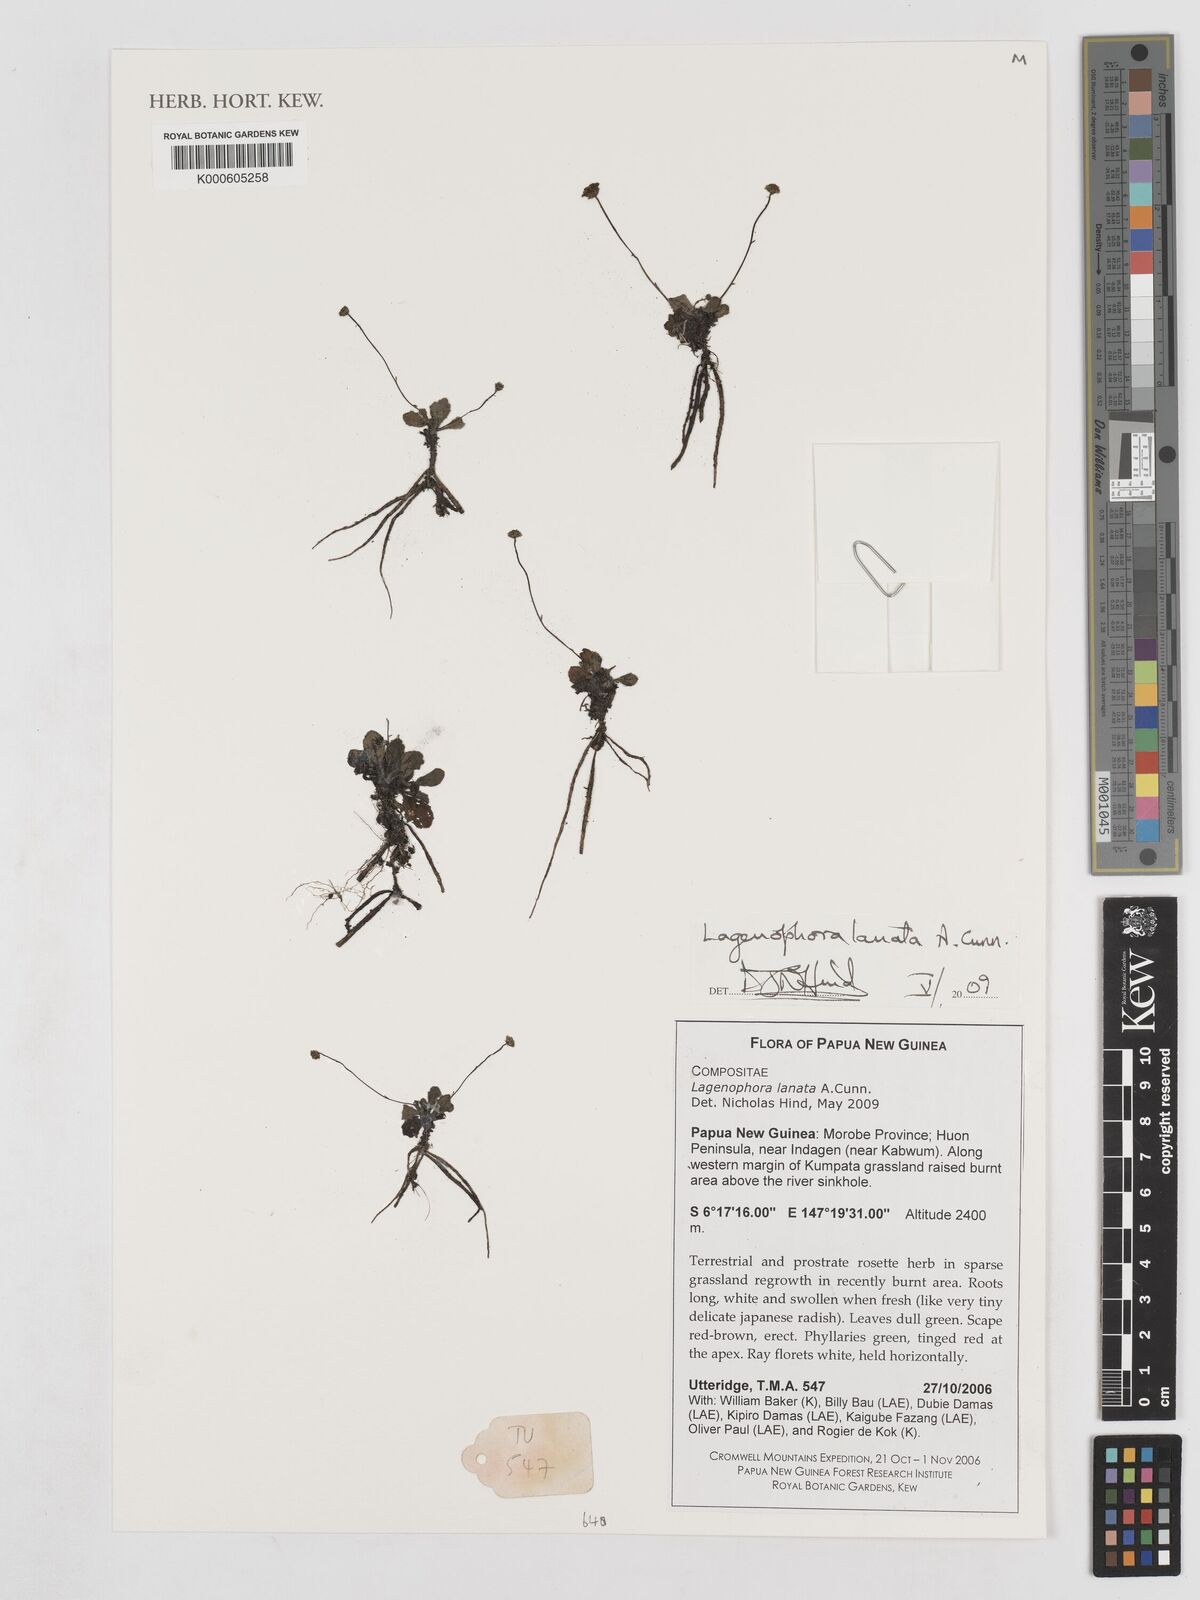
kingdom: Plantae
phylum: Tracheophyta
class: Magnoliopsida
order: Asterales
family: Asteraceae
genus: Lagenophora
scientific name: Lagenophora sublyrata ter
